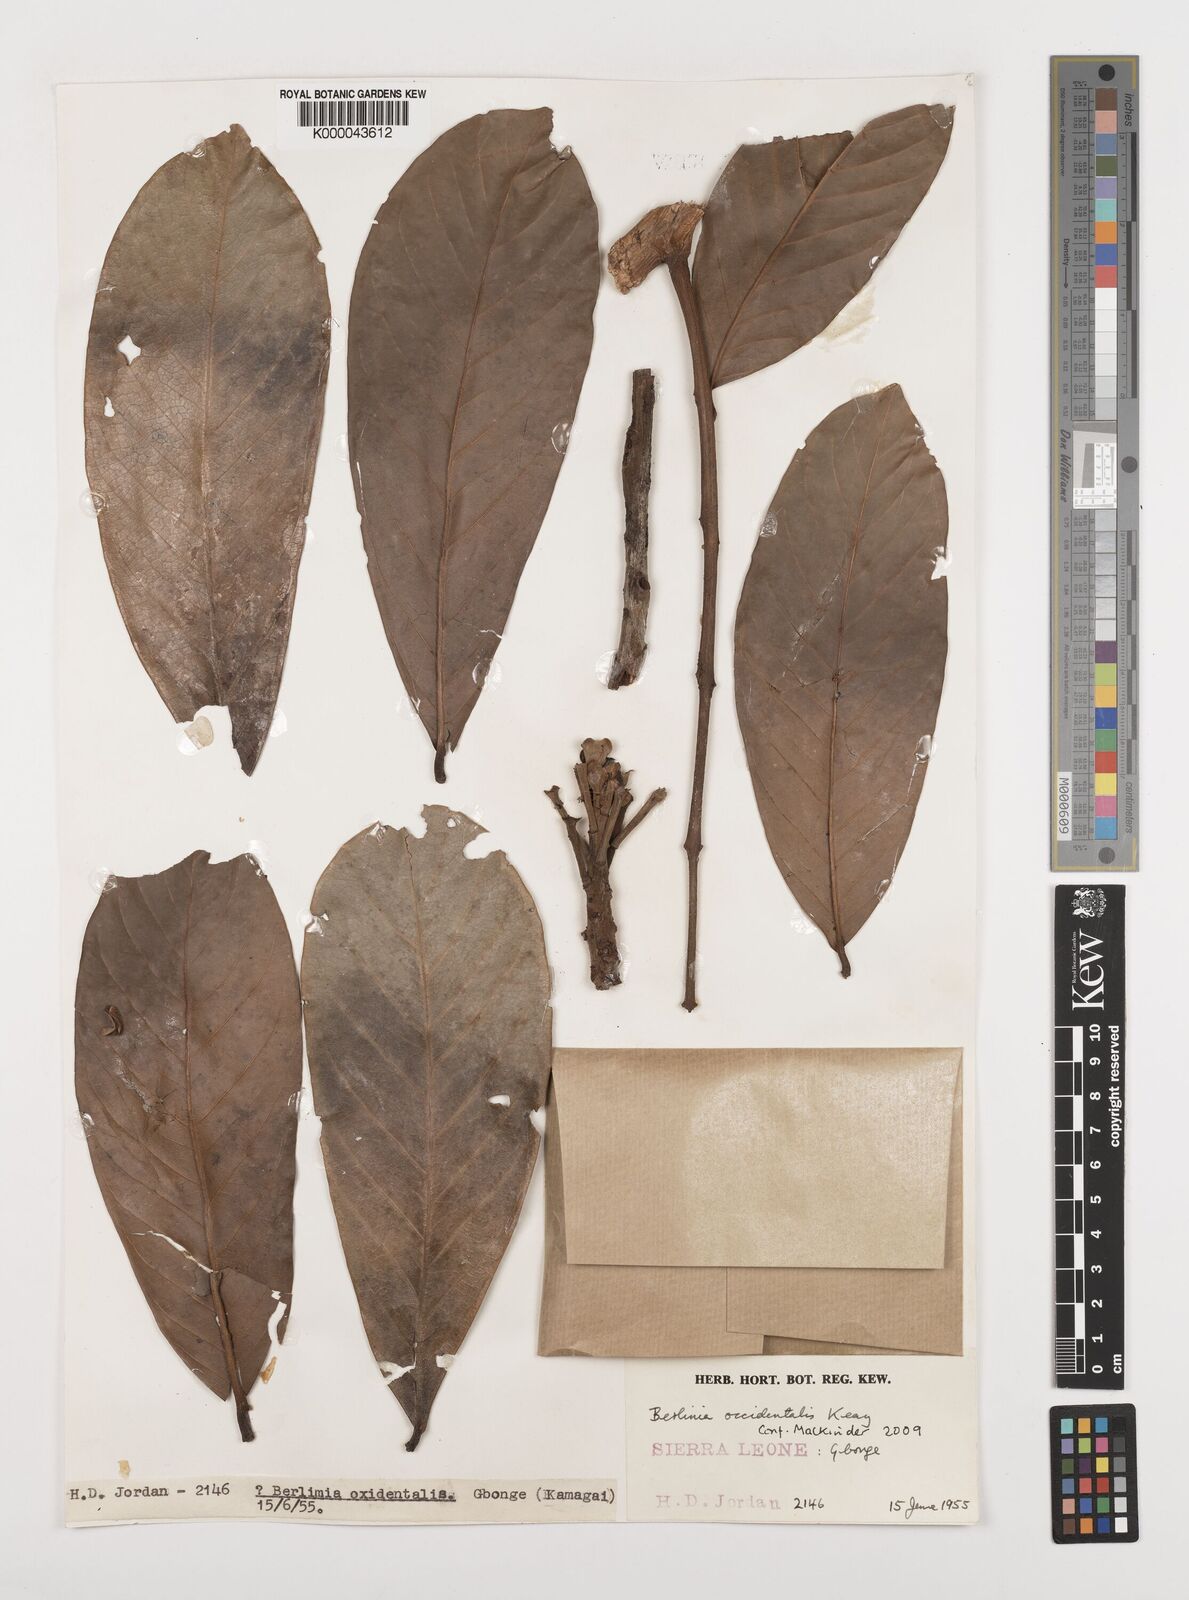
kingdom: Plantae
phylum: Tracheophyta
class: Magnoliopsida
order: Fabales
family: Fabaceae
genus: Berlinia
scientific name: Berlinia occidentalis
